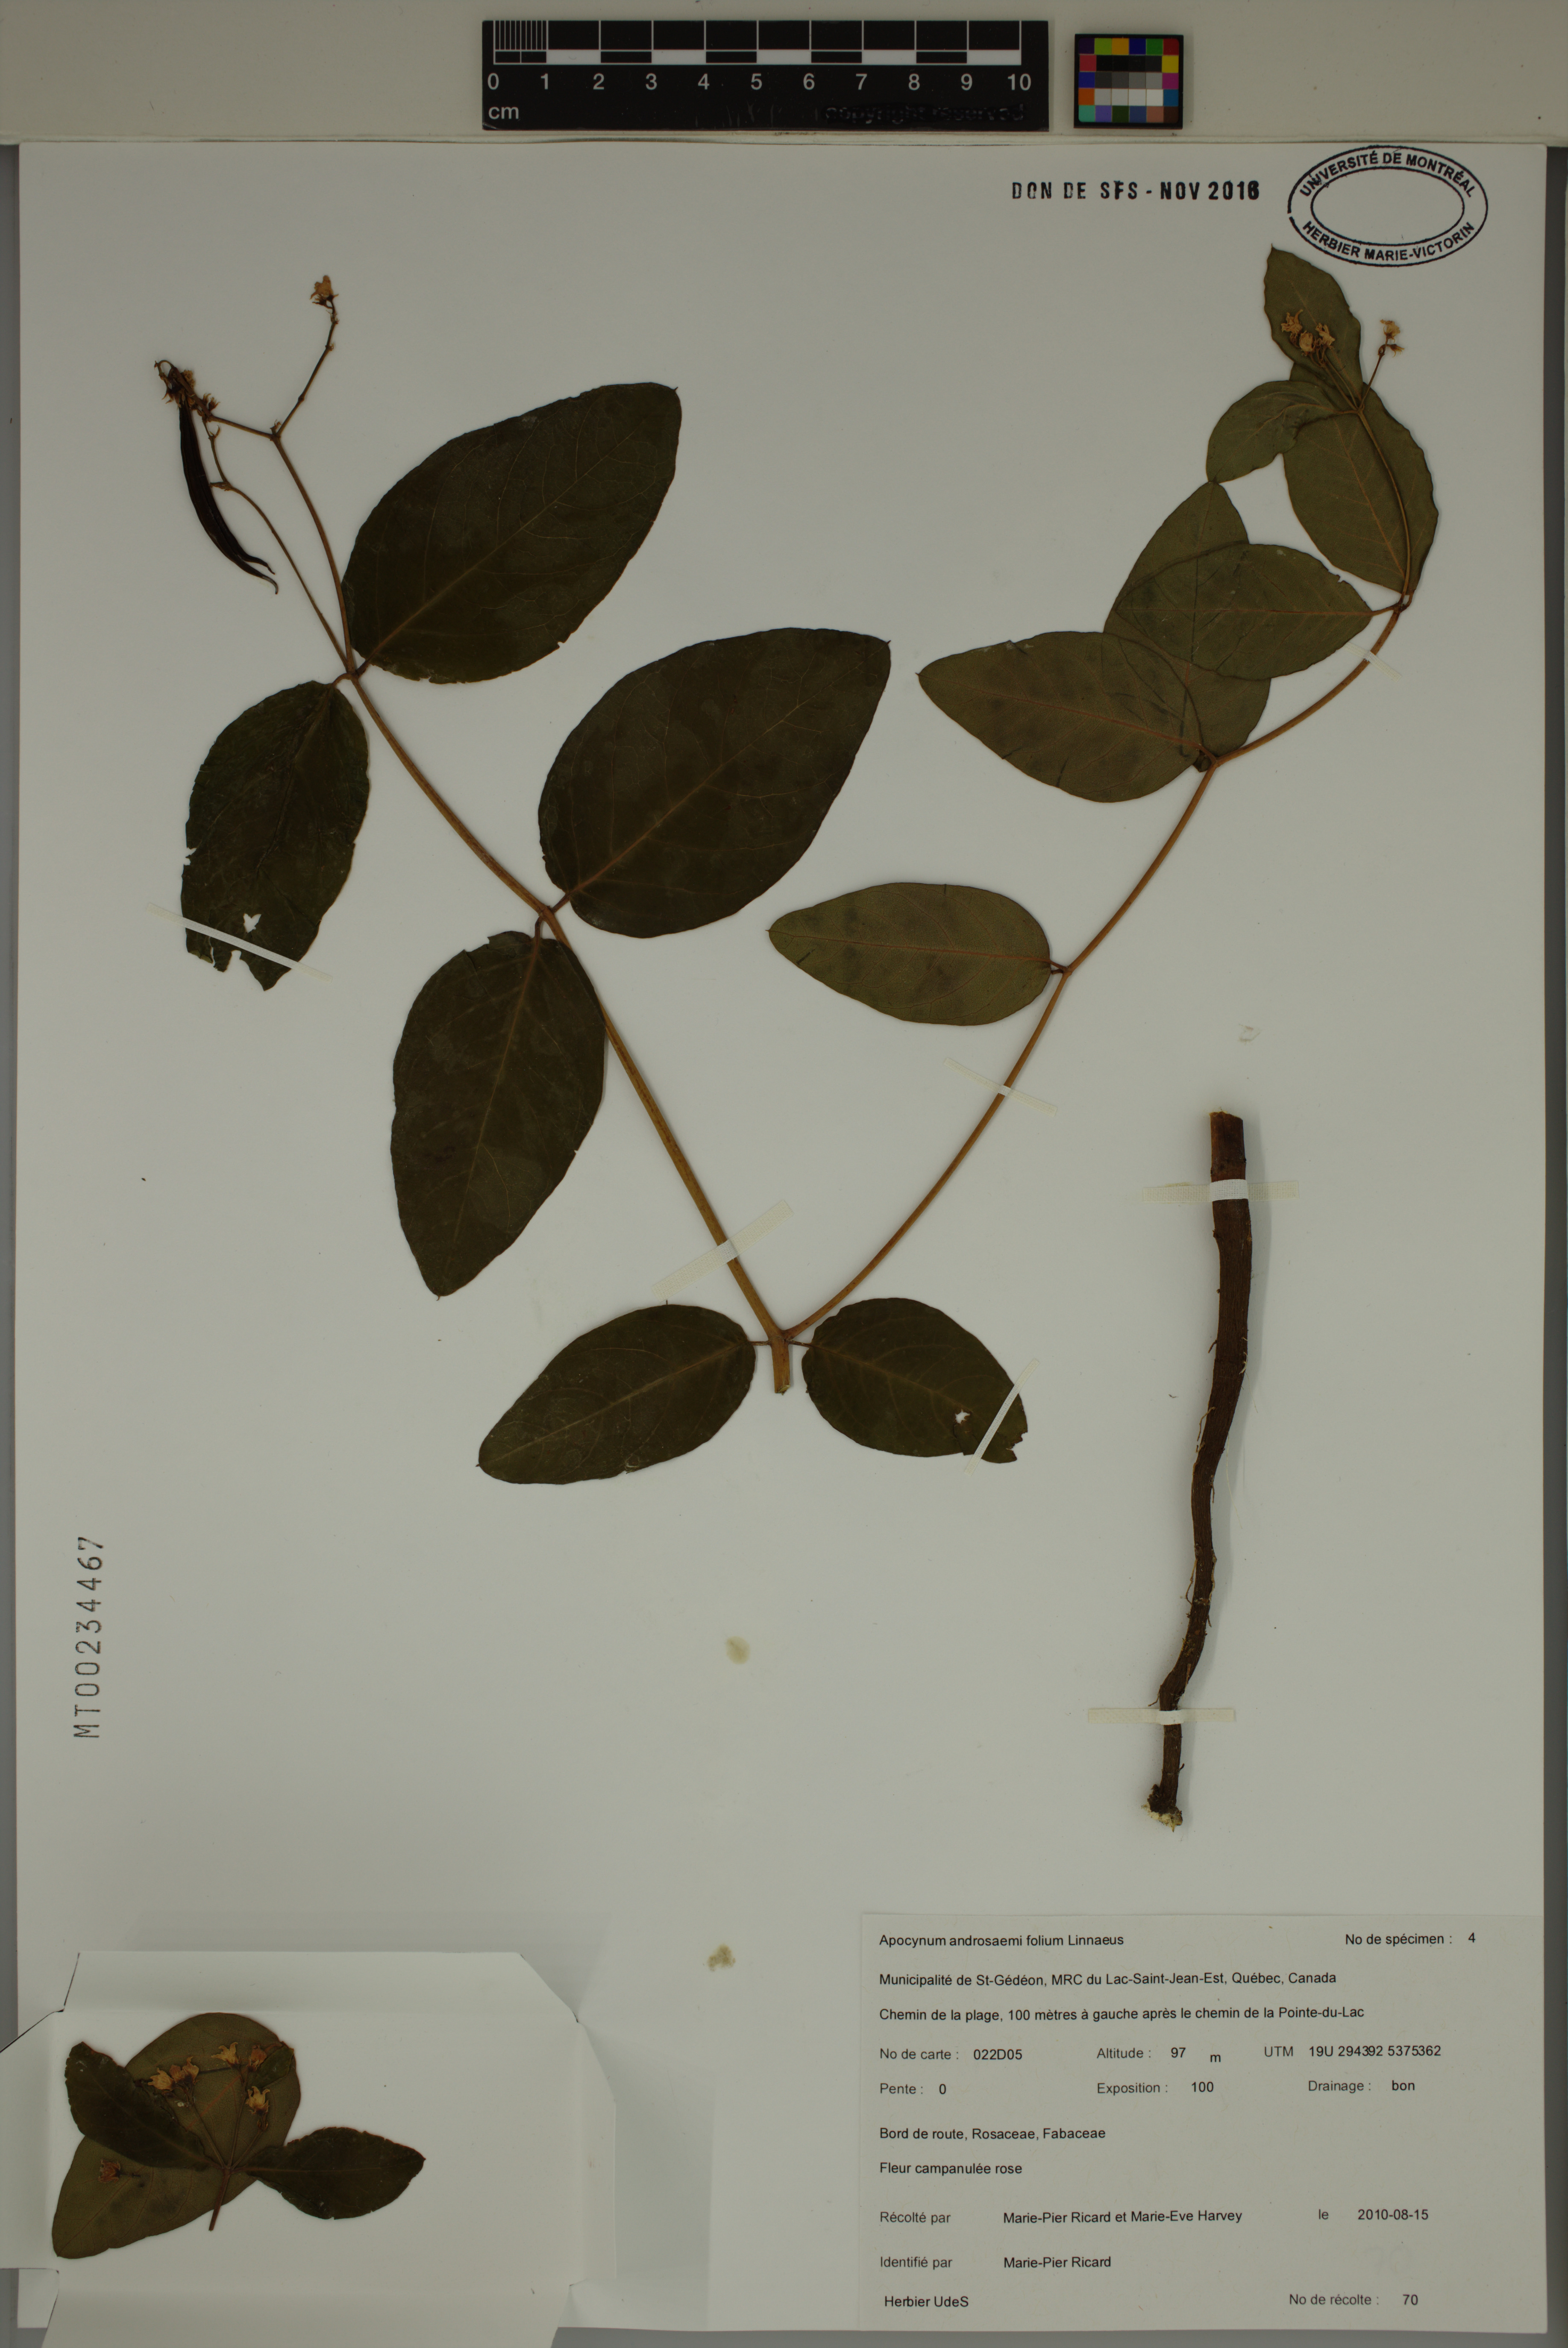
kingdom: Plantae
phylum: Tracheophyta
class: Magnoliopsida
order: Gentianales
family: Apocynaceae
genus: Apocynum
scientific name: Apocynum androsaemifolium
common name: Spreading dogbane
